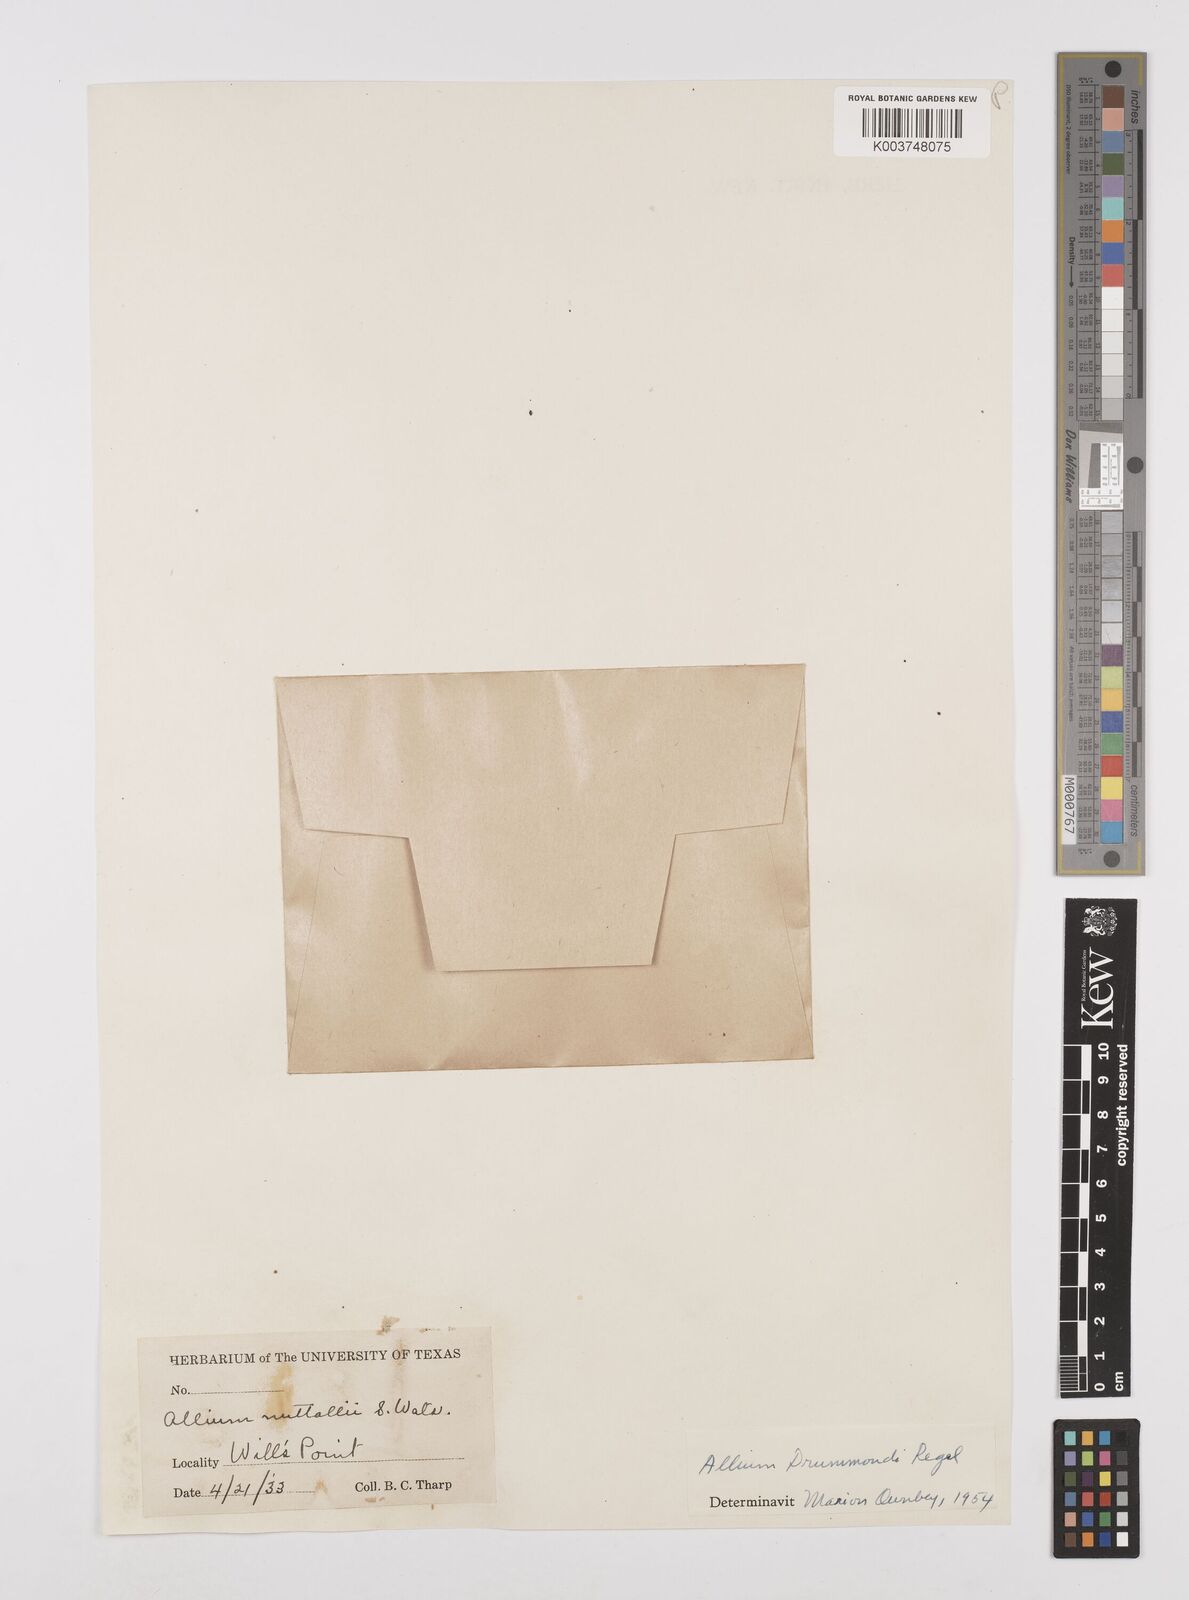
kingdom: Plantae
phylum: Tracheophyta
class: Liliopsida
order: Asparagales
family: Amaryllidaceae
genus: Allium
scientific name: Allium drummondii
